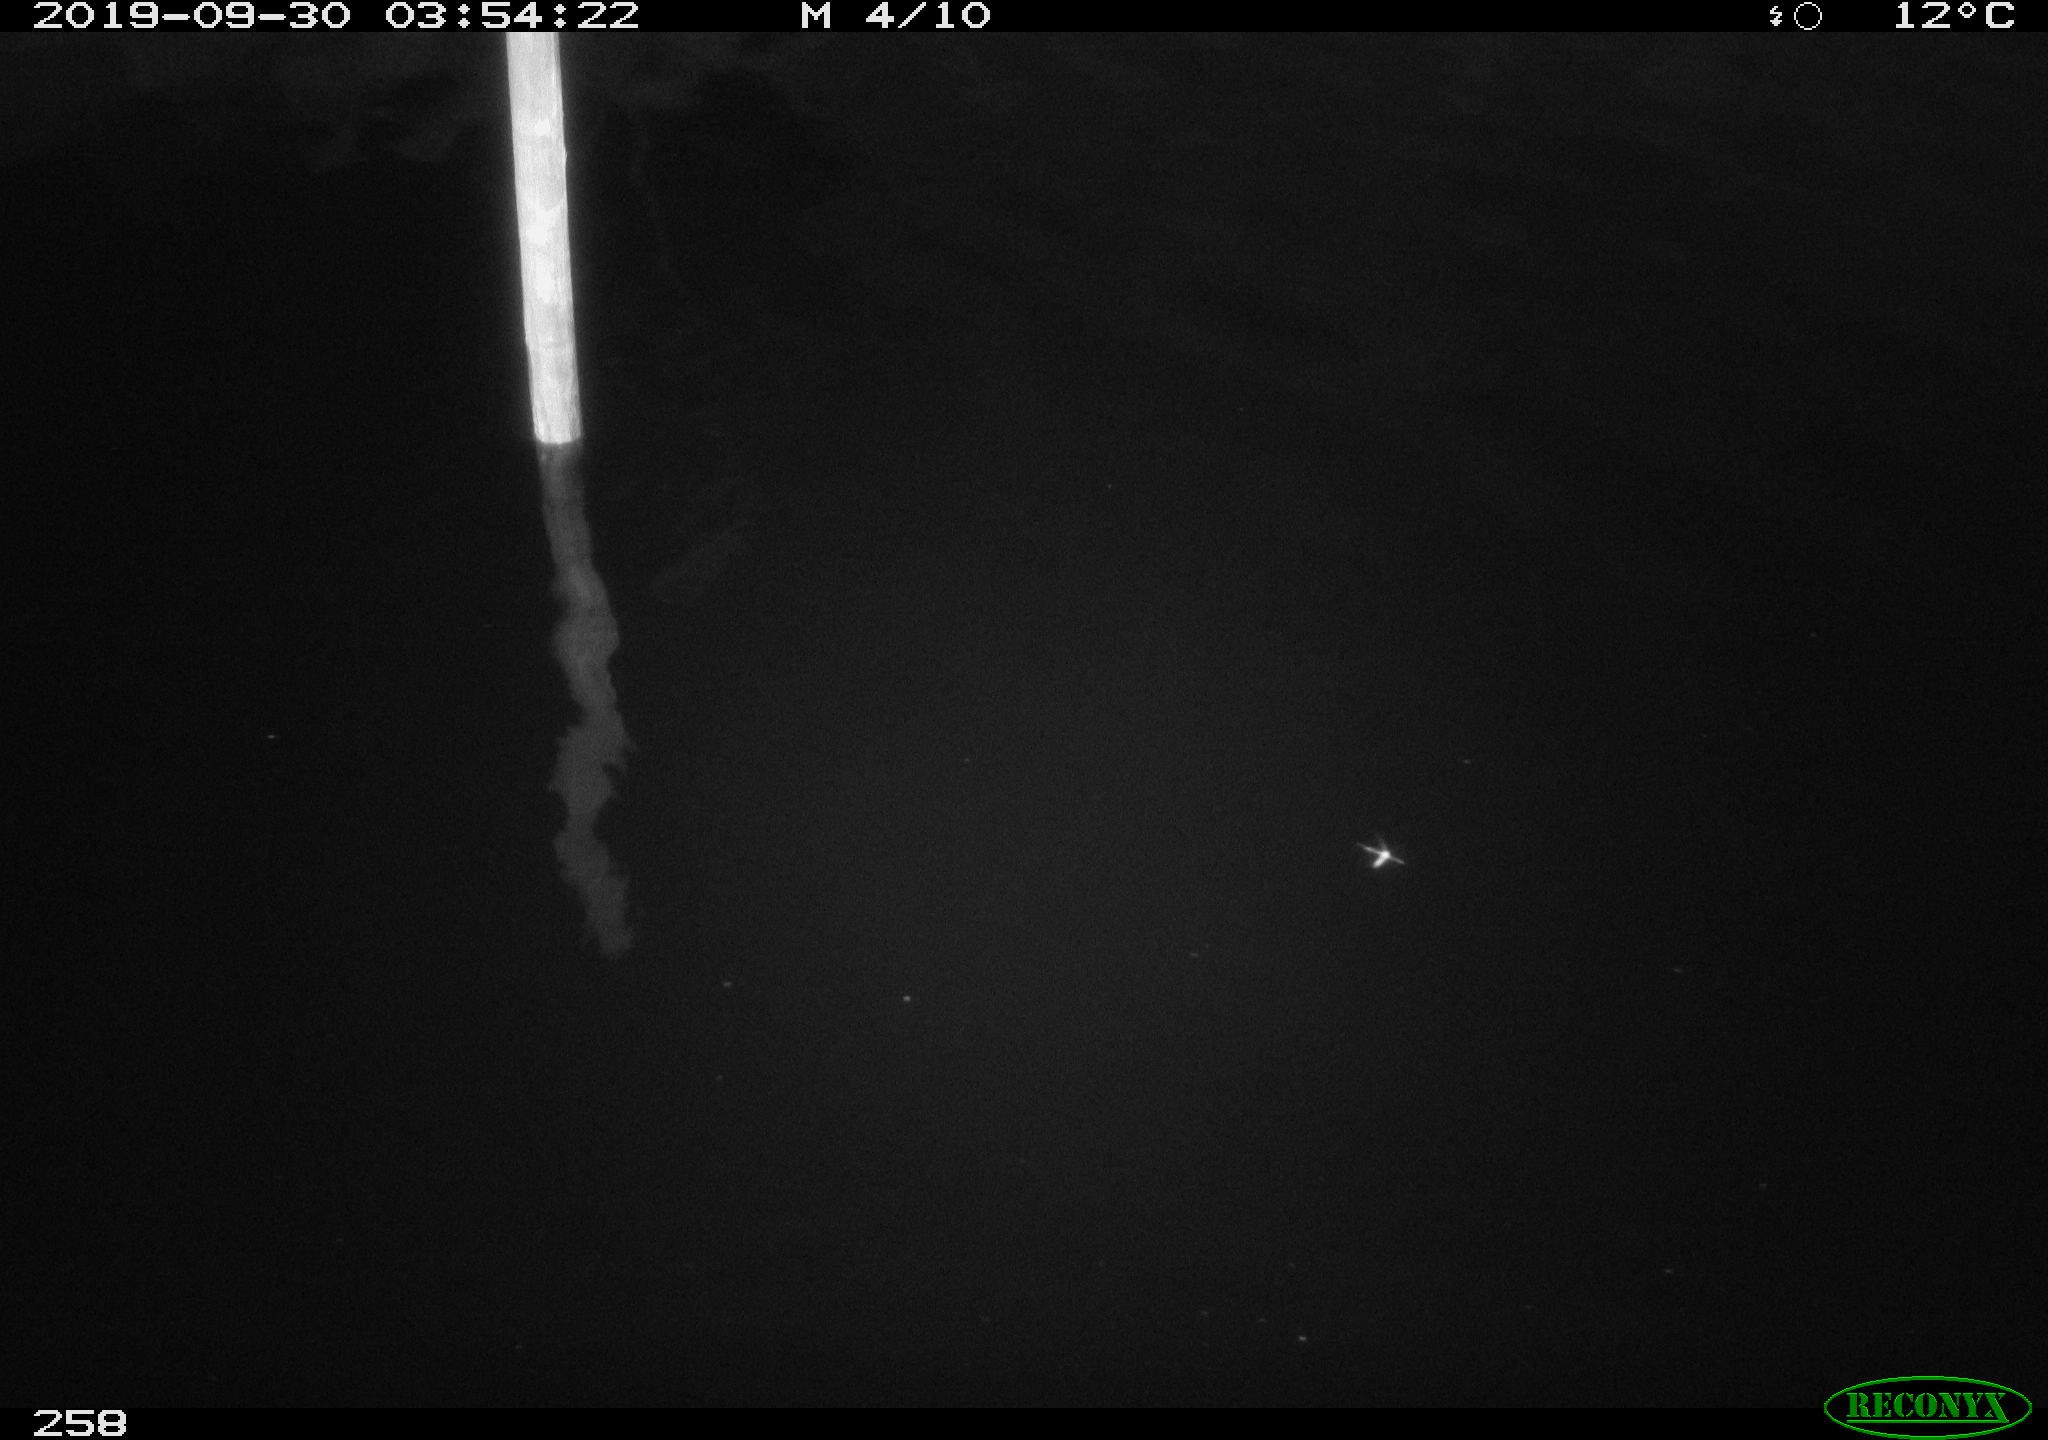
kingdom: Animalia
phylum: Chordata
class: Aves
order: Anseriformes
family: Anatidae
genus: Anas
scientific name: Anas platyrhynchos
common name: Mallard
